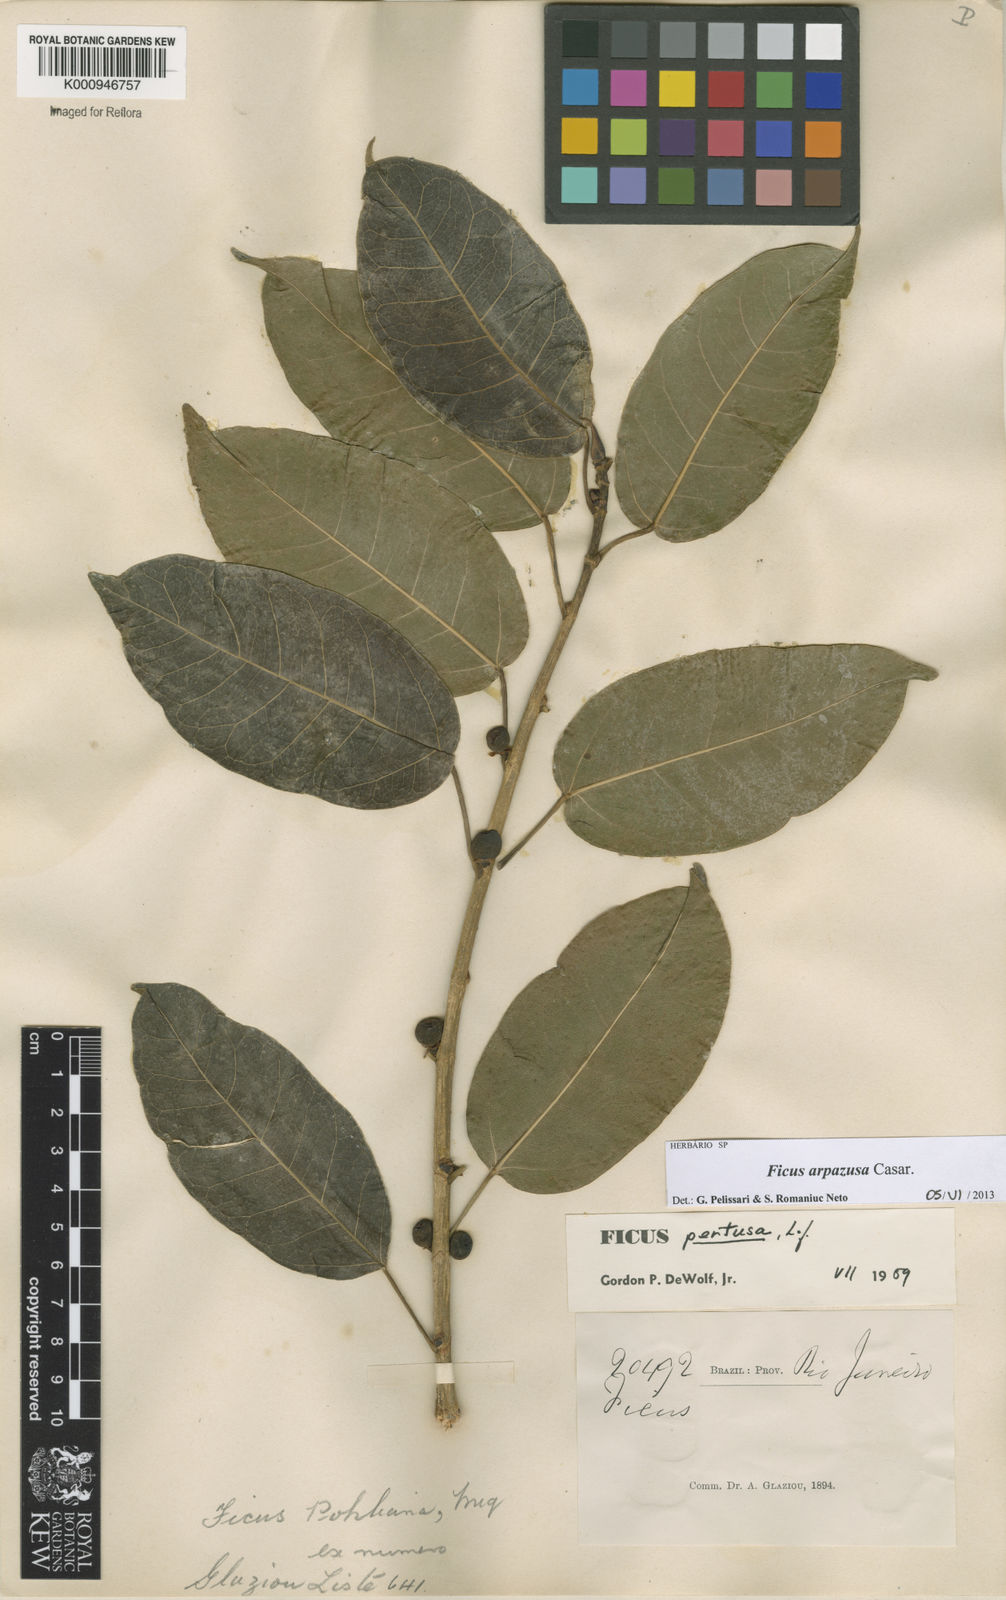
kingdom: Plantae
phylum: Tracheophyta
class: Magnoliopsida
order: Rosales
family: Moraceae
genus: Ficus
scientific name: Ficus arpazusa
